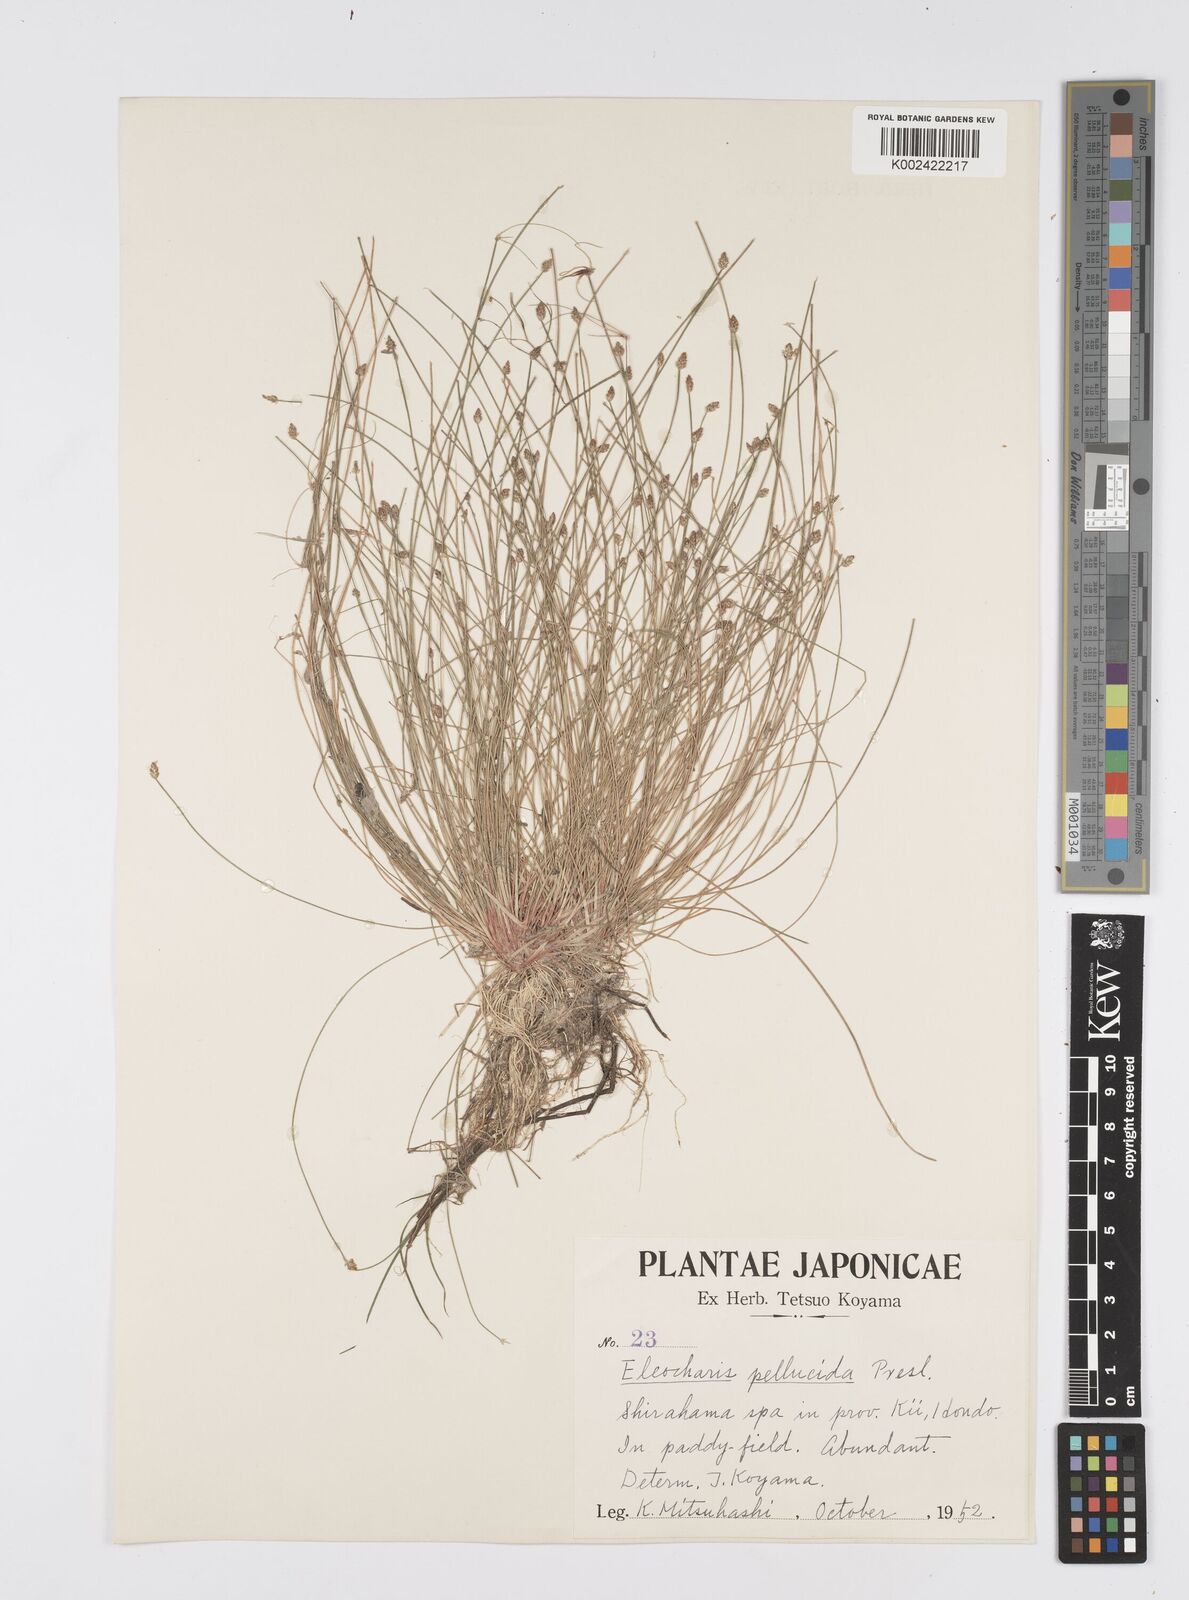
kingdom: Plantae
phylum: Tracheophyta
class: Liliopsida
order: Poales
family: Cyperaceae
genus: Eleocharis
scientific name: Eleocharis pellucida
